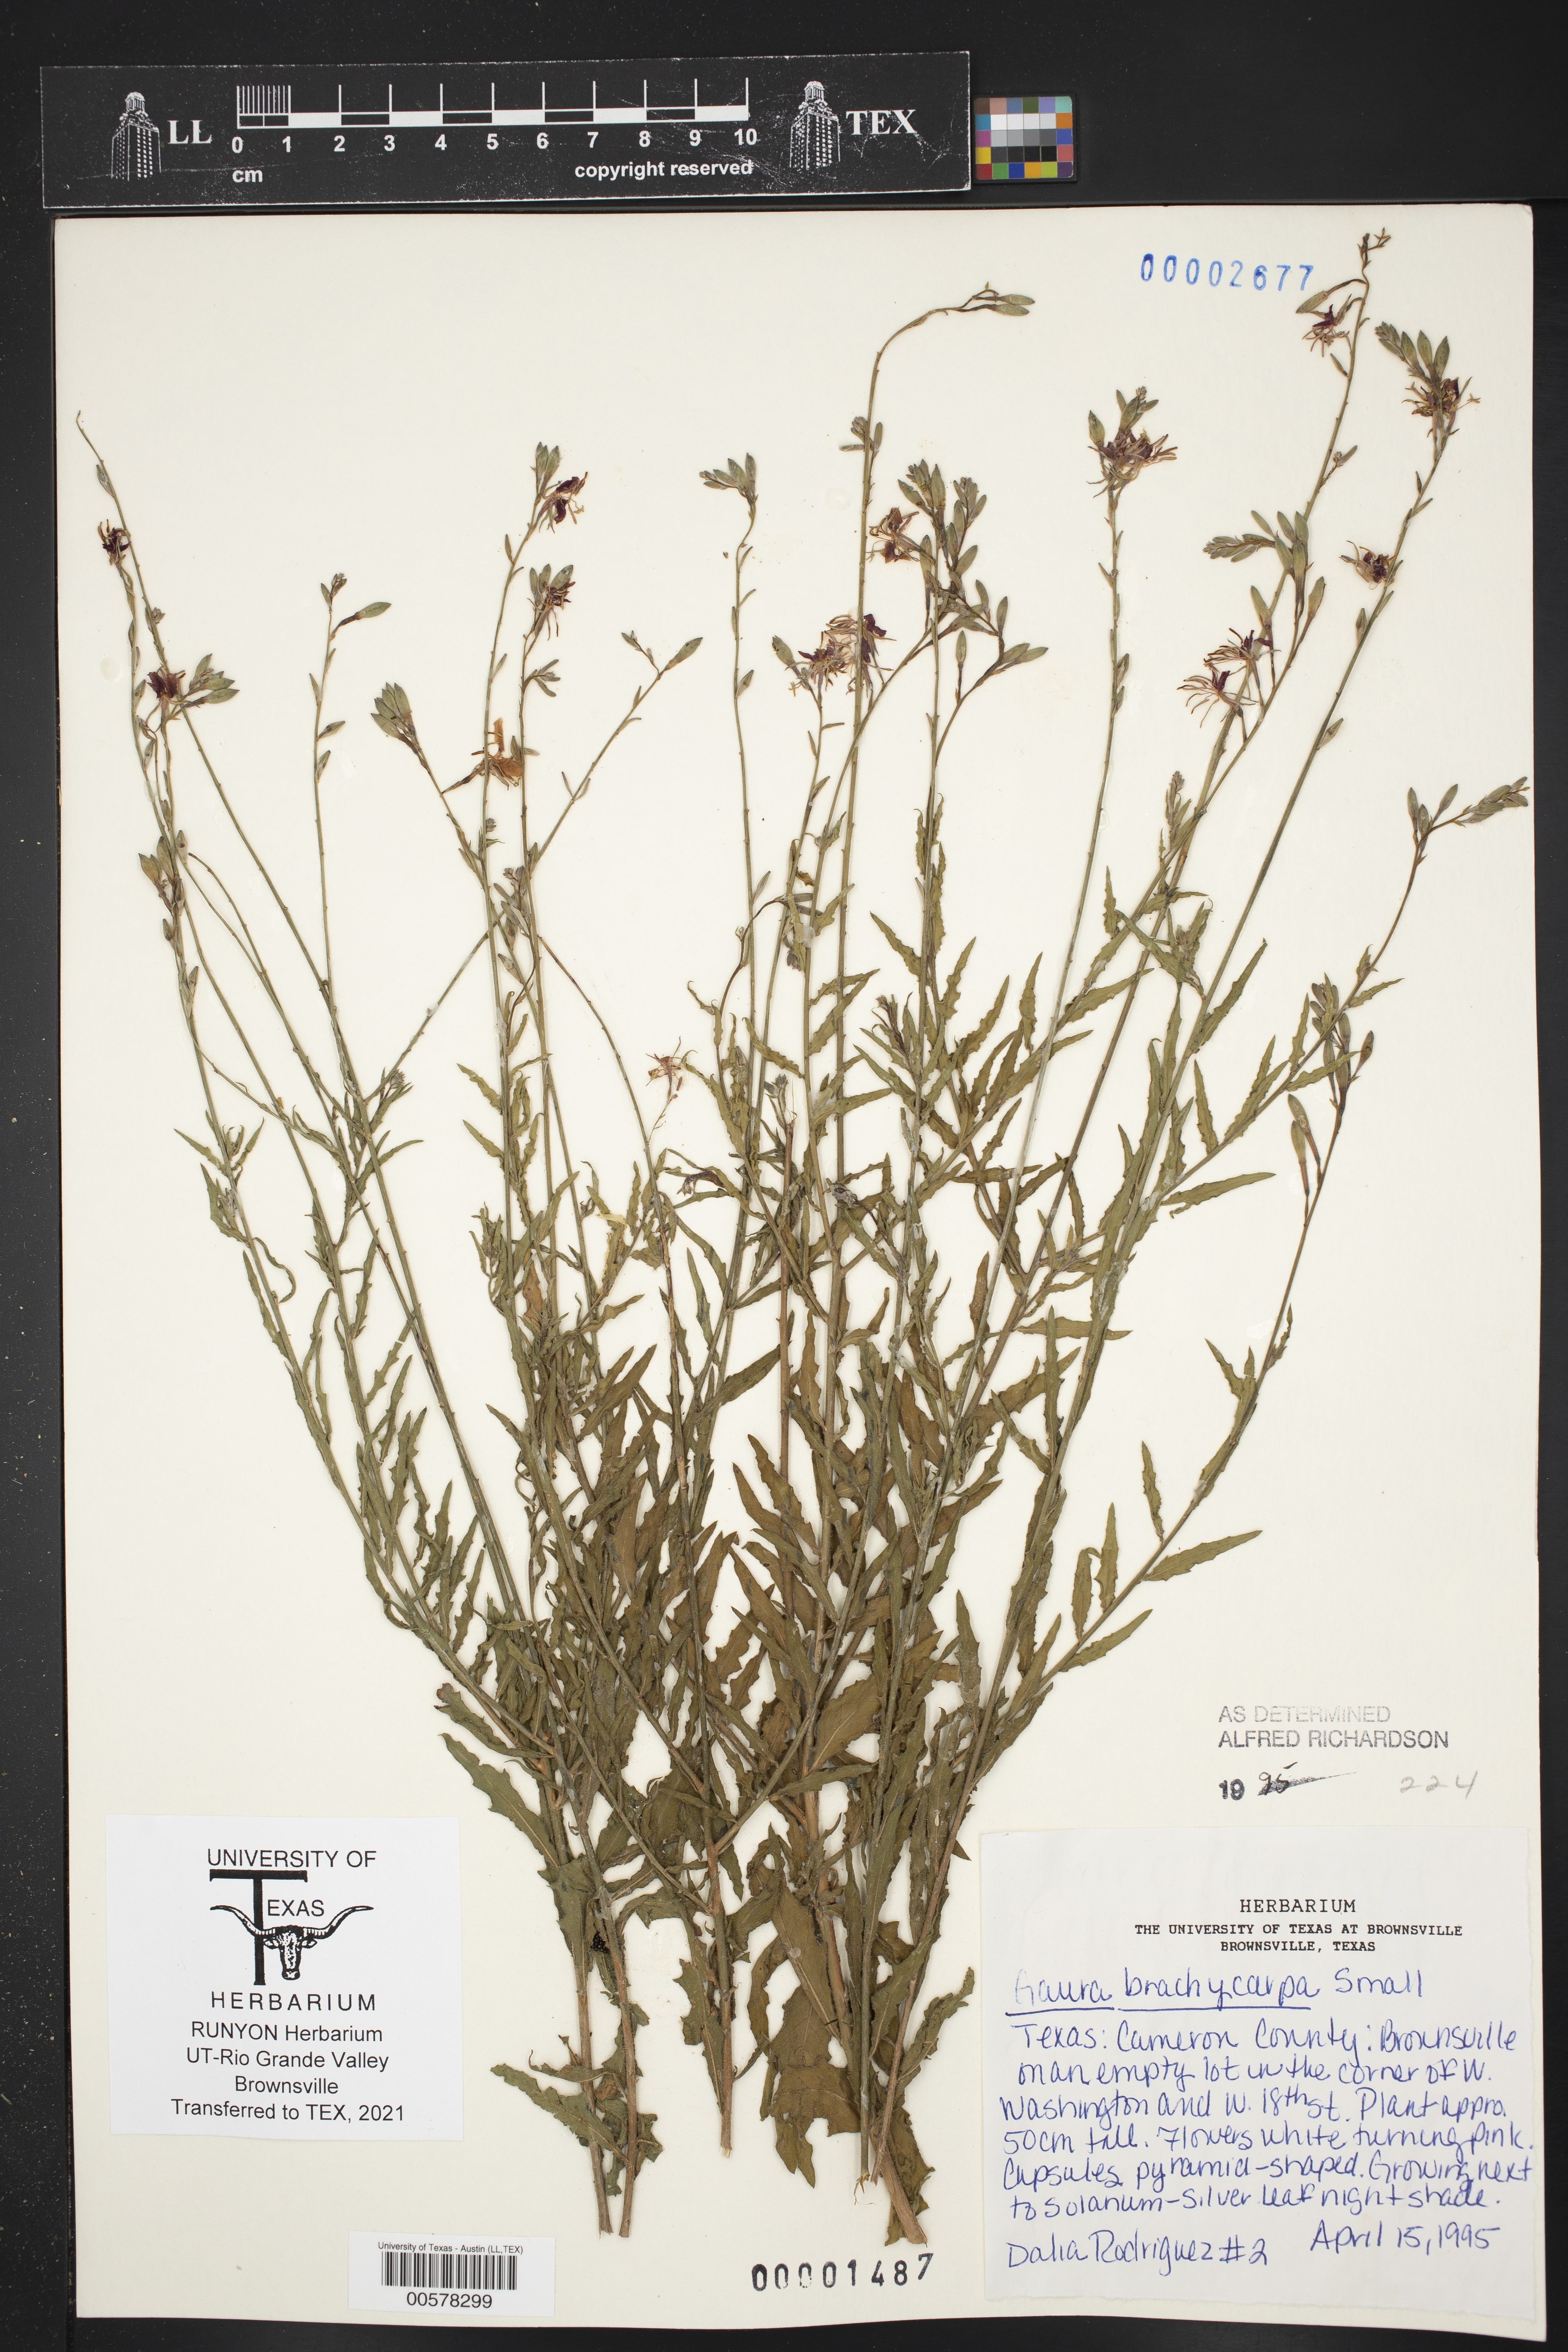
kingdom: Plantae
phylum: Tracheophyta
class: Magnoliopsida
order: Myrtales
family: Onagraceae
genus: Oenothera
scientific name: Oenothera patriciae
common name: Plains beeblossom
